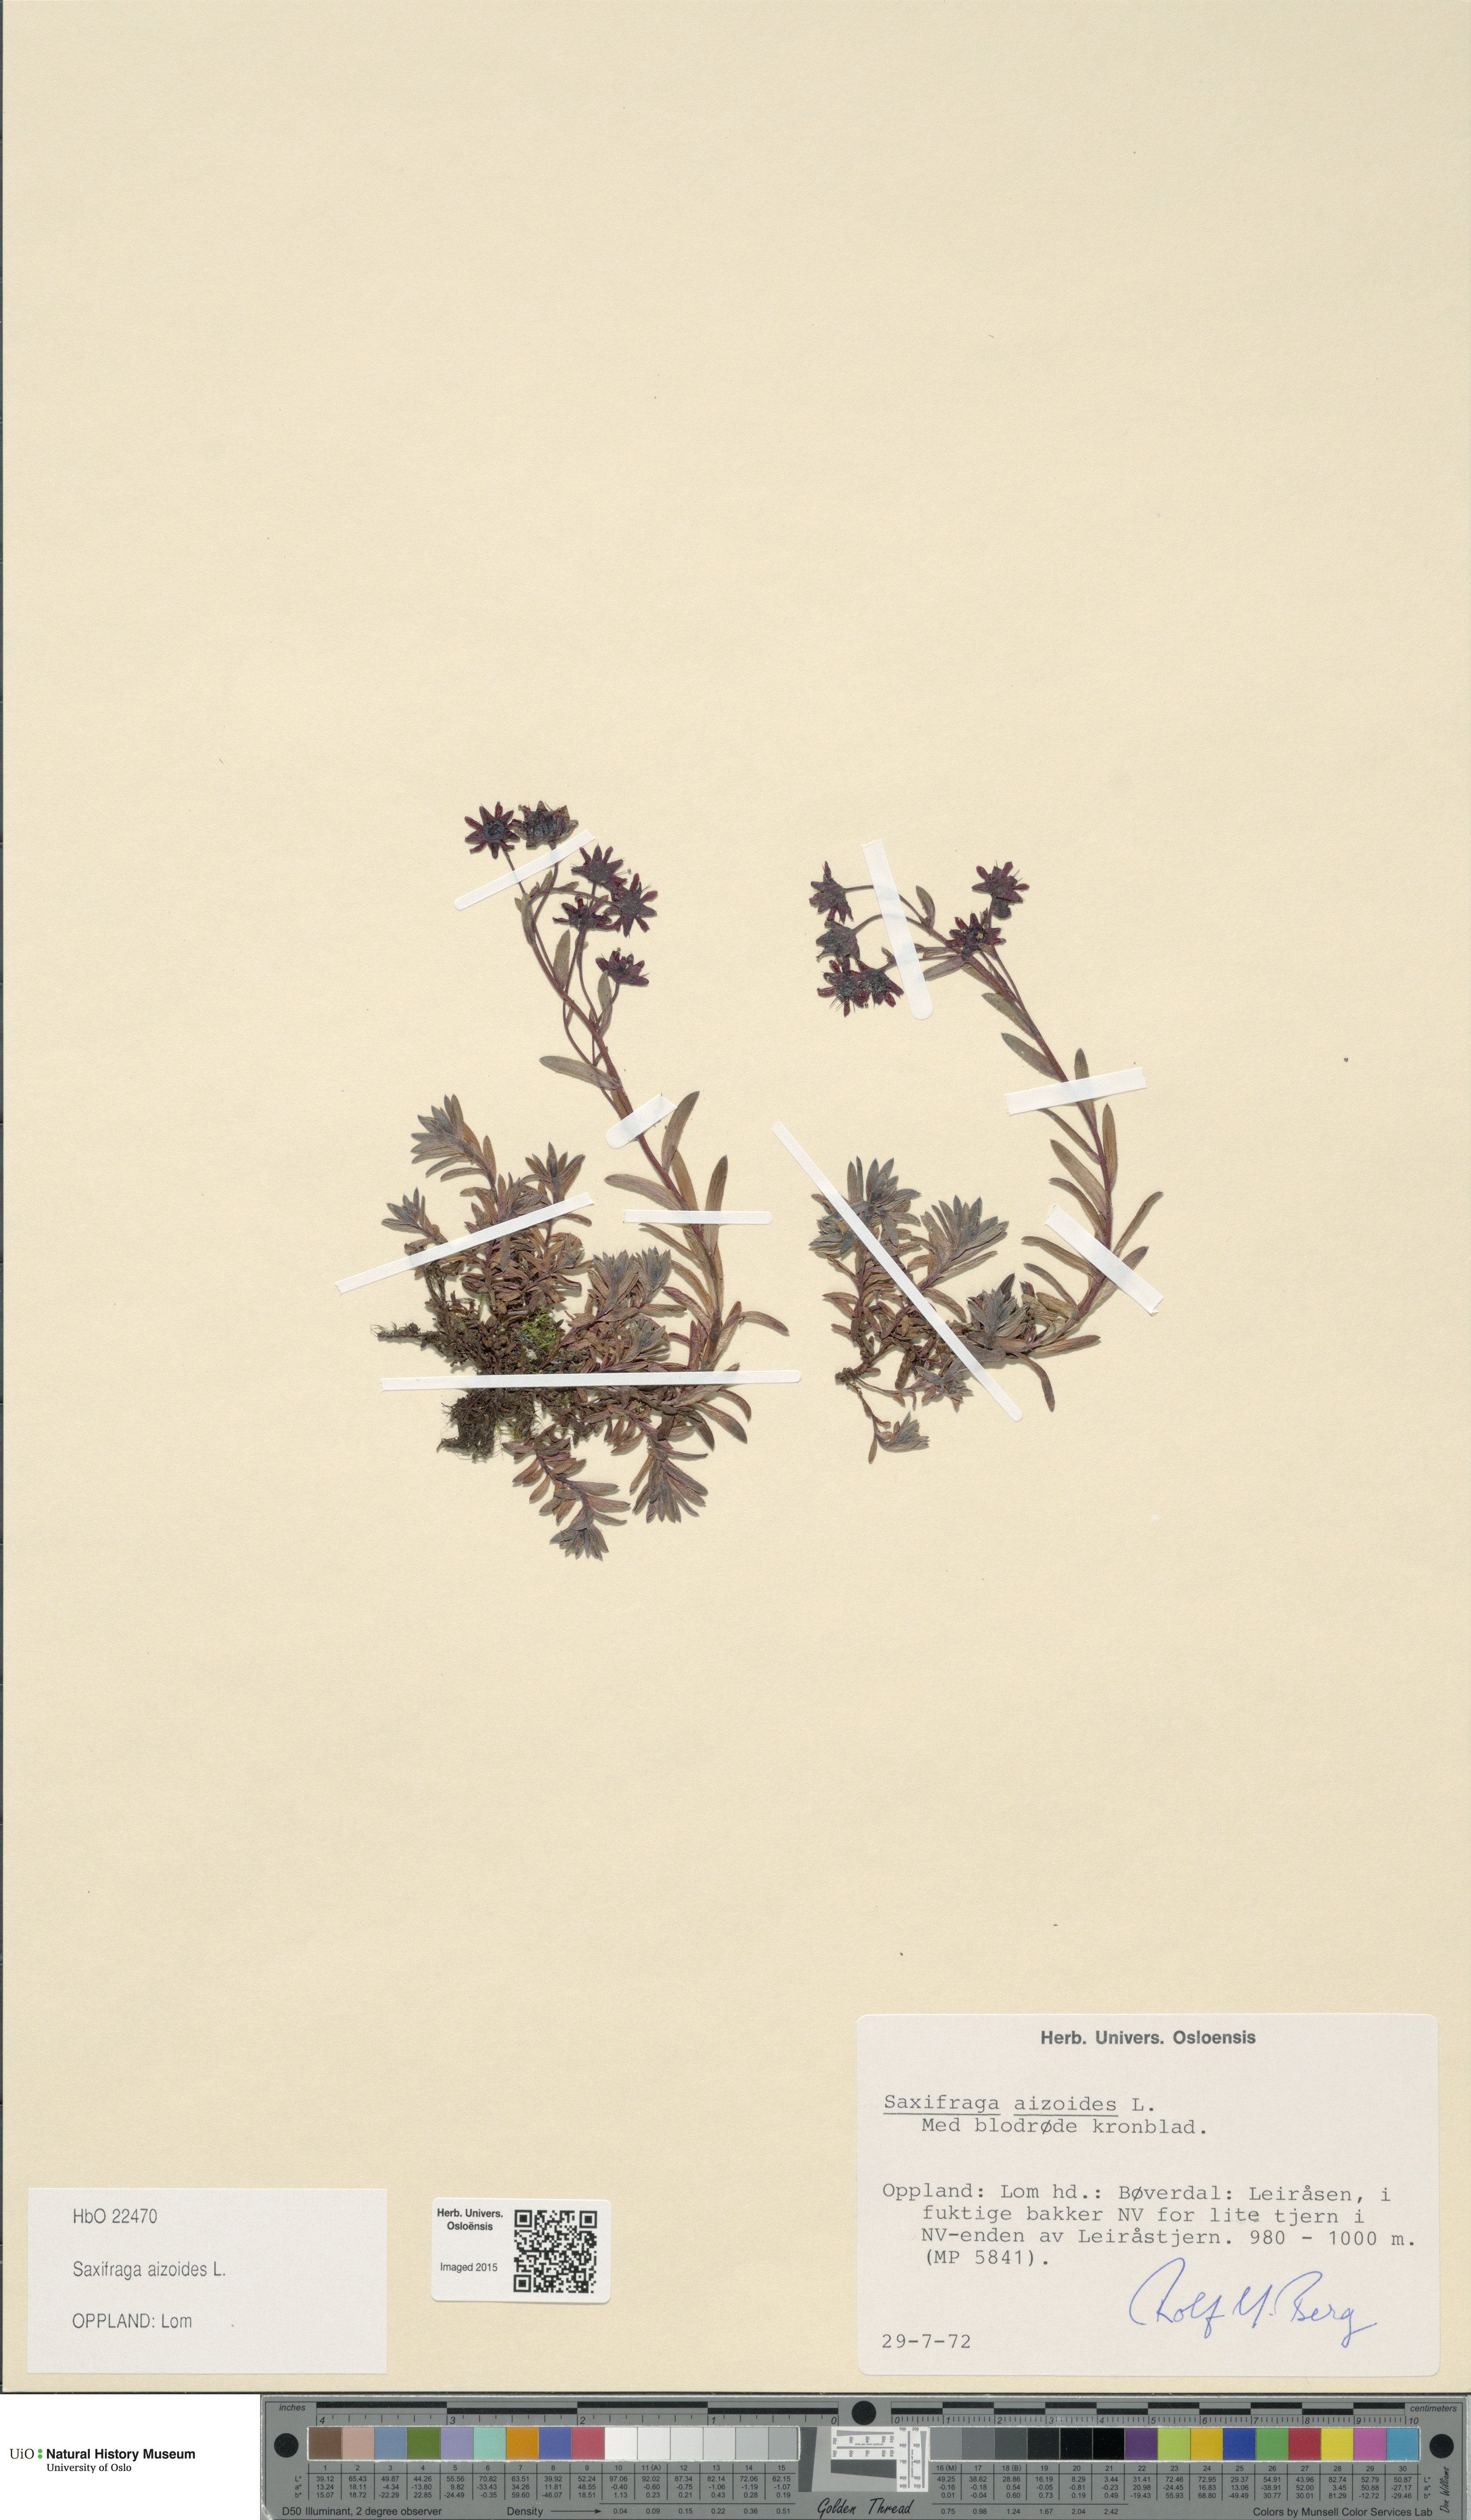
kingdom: Plantae
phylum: Tracheophyta
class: Magnoliopsida
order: Saxifragales
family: Saxifragaceae
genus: Saxifraga
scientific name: Saxifraga aizoides
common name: Yellow mountain saxifrage
